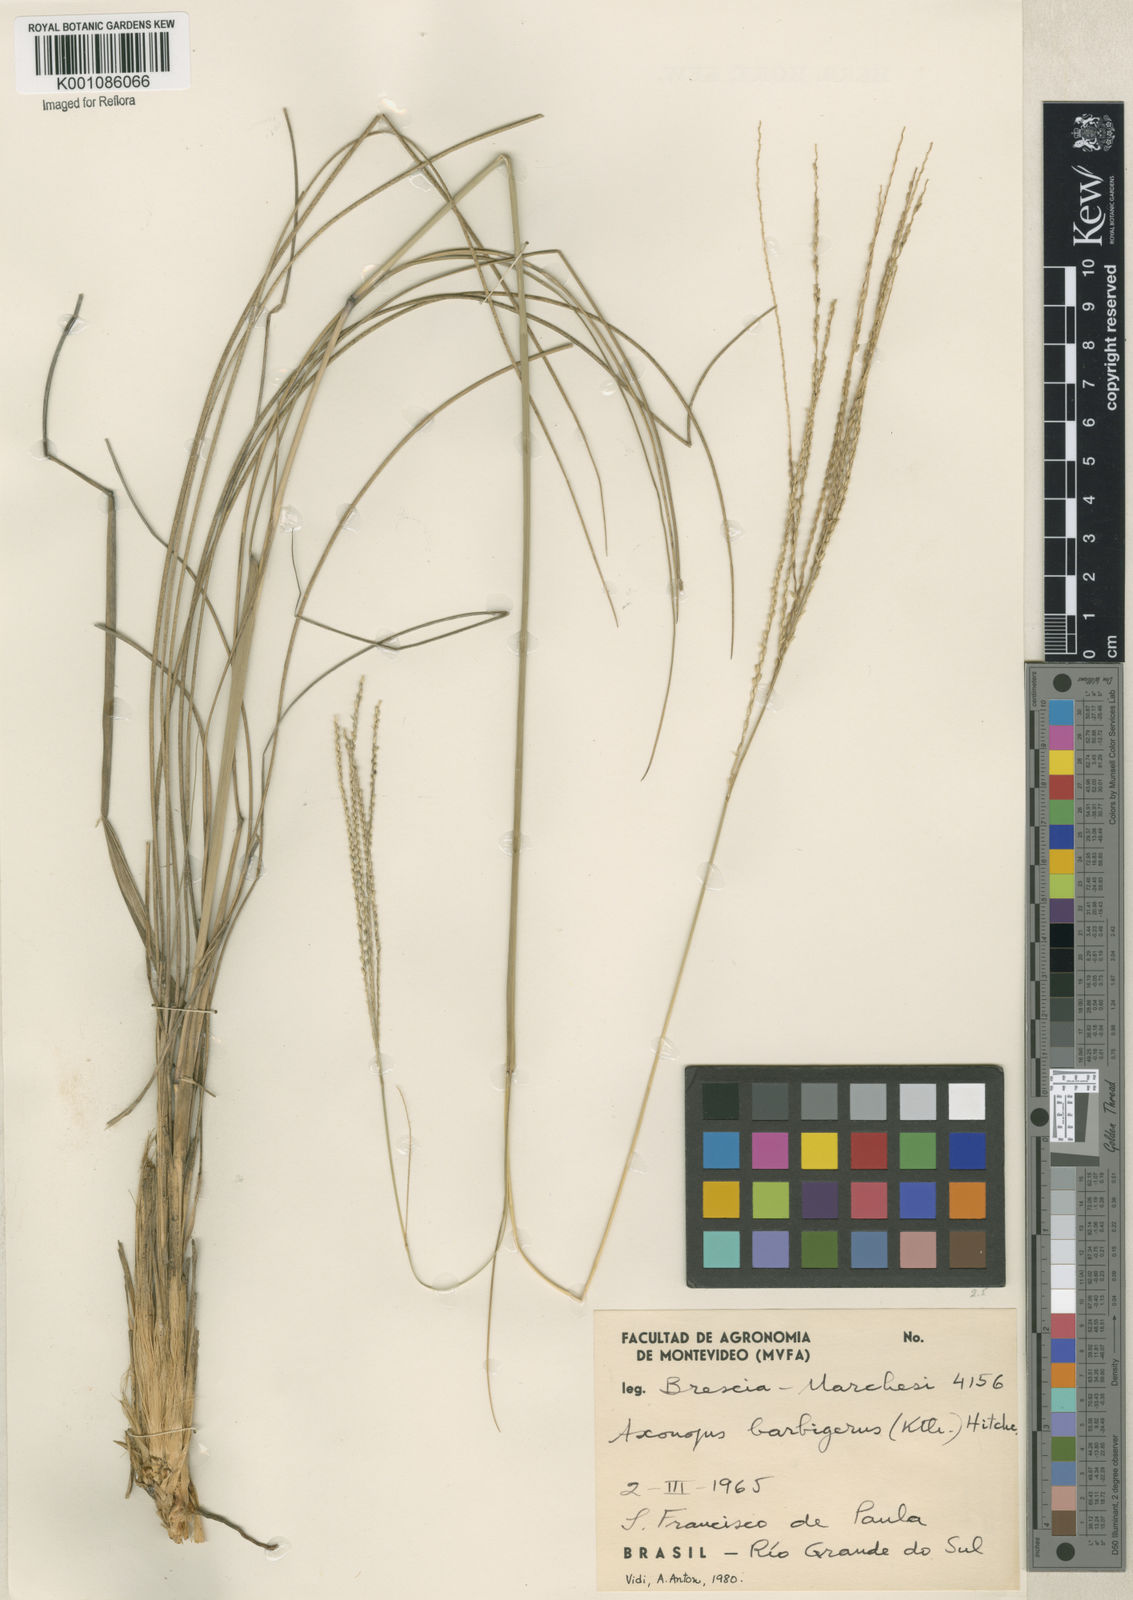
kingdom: Plantae
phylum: Tracheophyta
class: Liliopsida
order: Poales
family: Poaceae
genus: Axonopus
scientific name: Axonopus siccus
